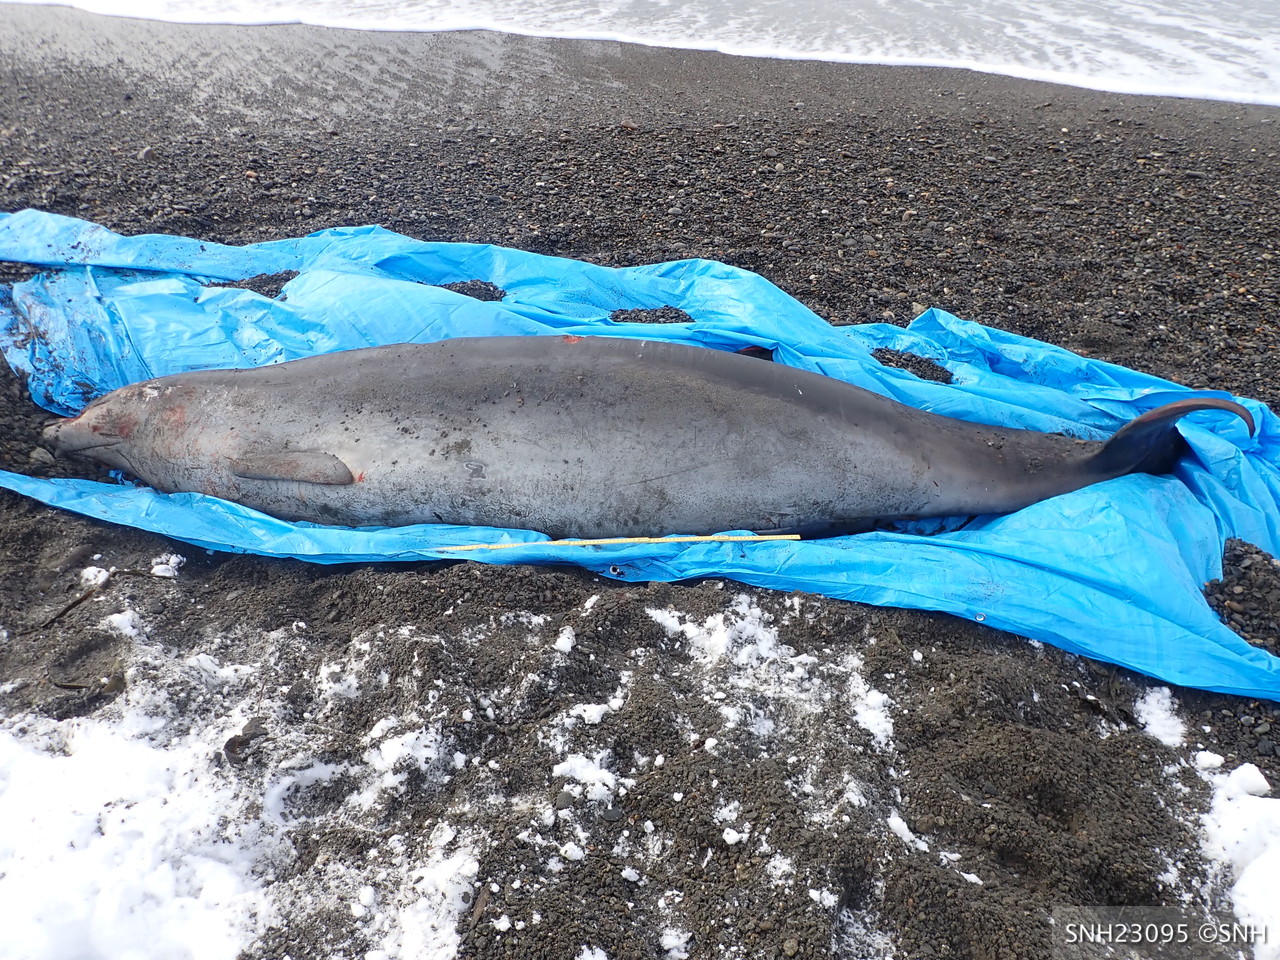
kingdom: Animalia
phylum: Chordata
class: Mammalia
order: Cetacea
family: Hyperoodontidae
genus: Mesoplodon
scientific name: Mesoplodon carlhubbsi
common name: Hubbs' beaked whale
